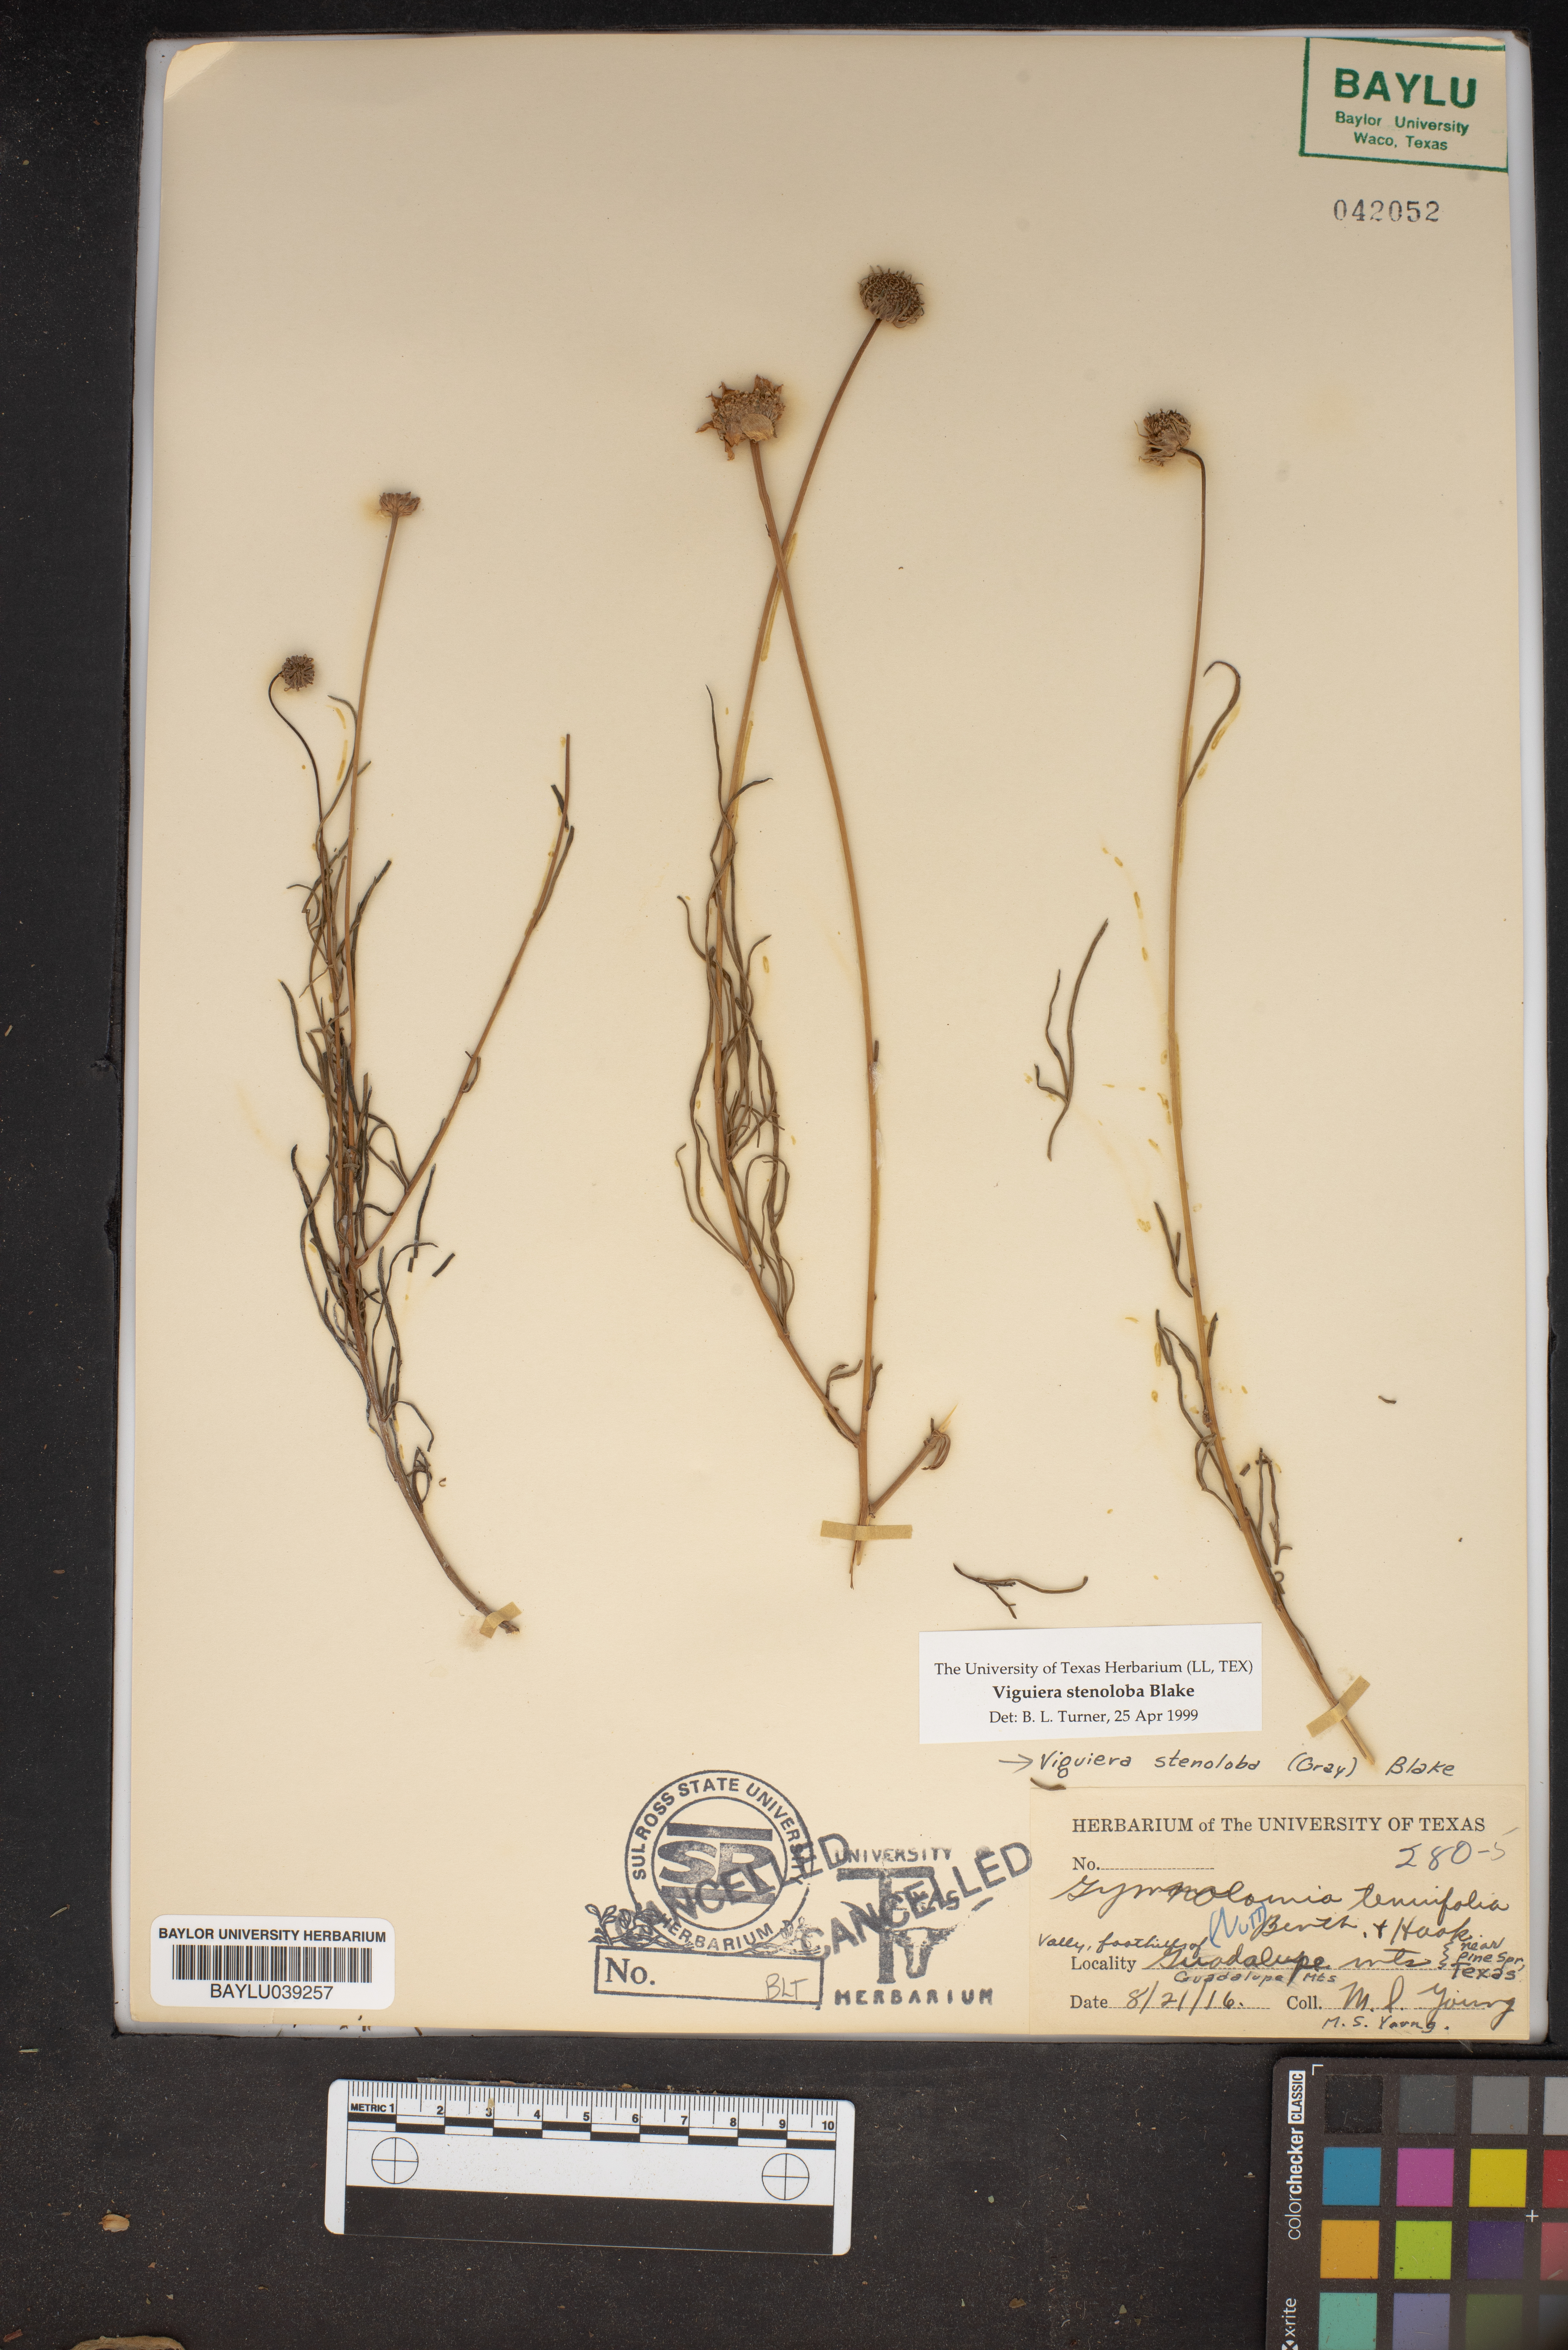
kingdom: Plantae
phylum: Tracheophyta
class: Magnoliopsida
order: Asterales
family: Asteraceae
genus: Sidneya
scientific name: Sidneya tenuifolia
